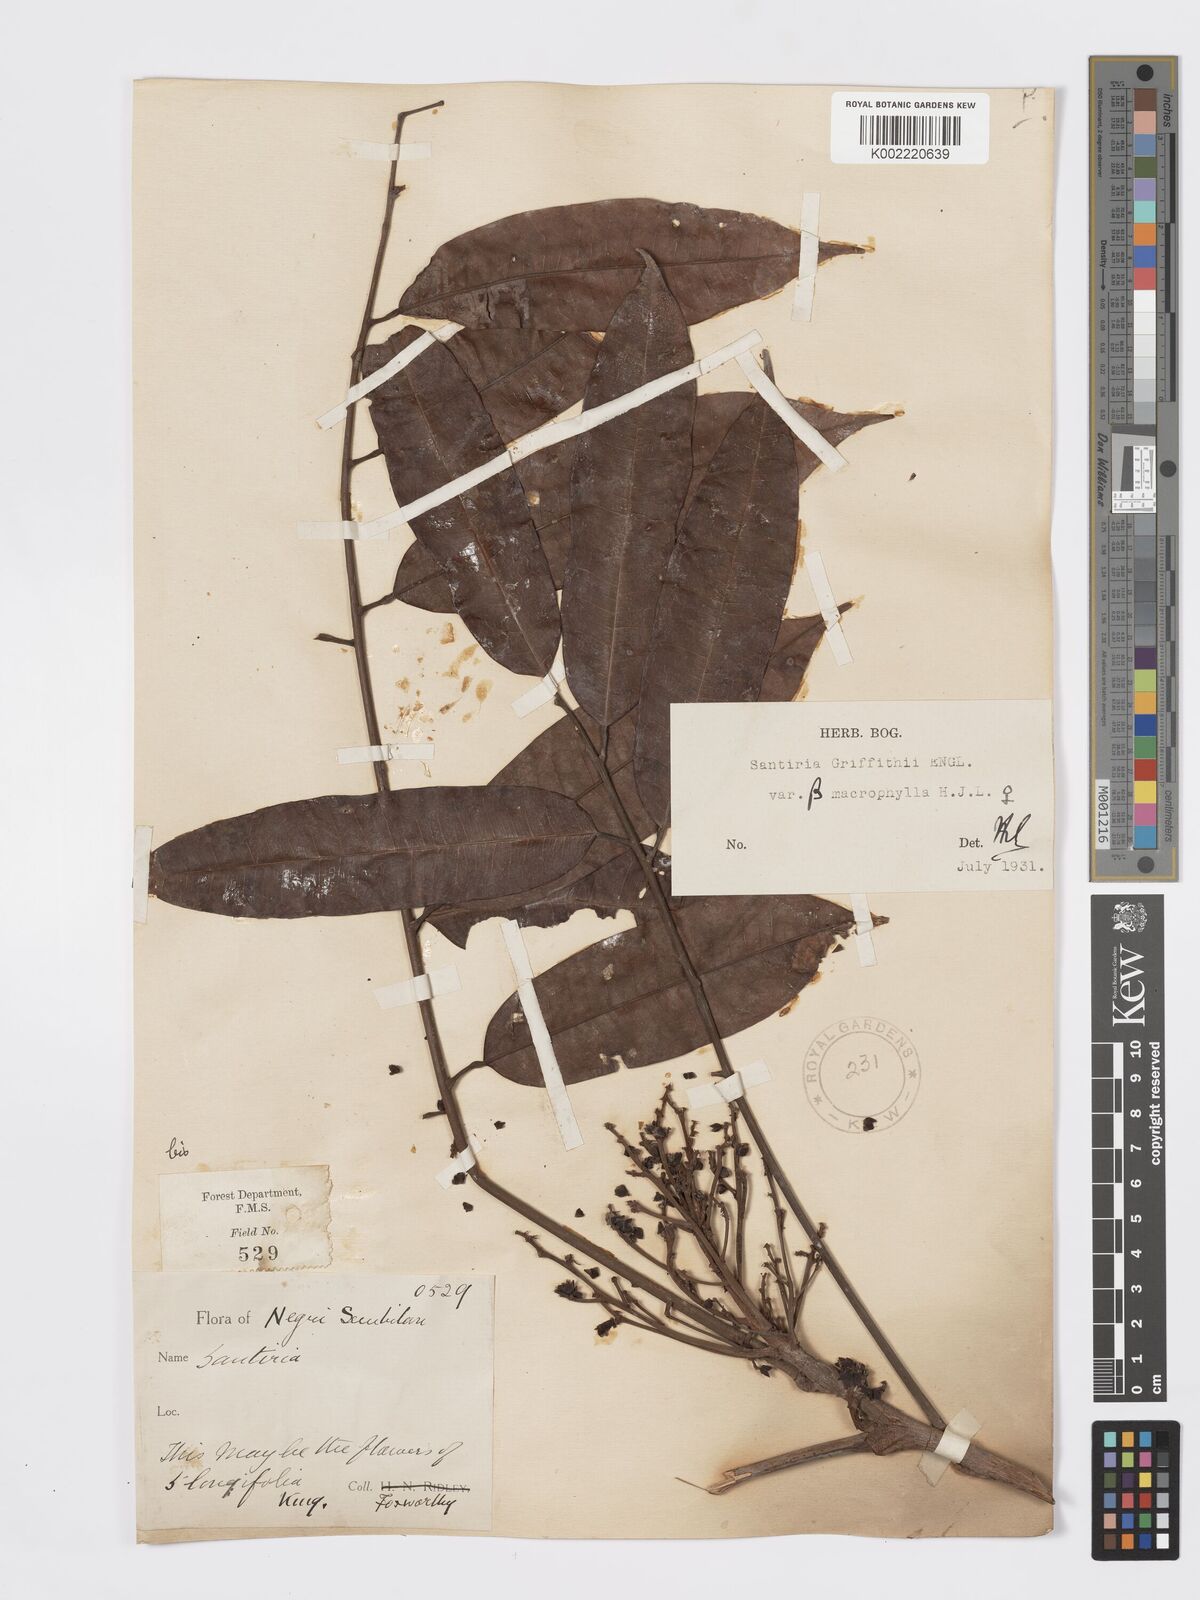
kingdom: Plantae
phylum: Tracheophyta
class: Magnoliopsida
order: Sapindales
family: Burseraceae
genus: Santiria
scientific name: Santiria griffithii
